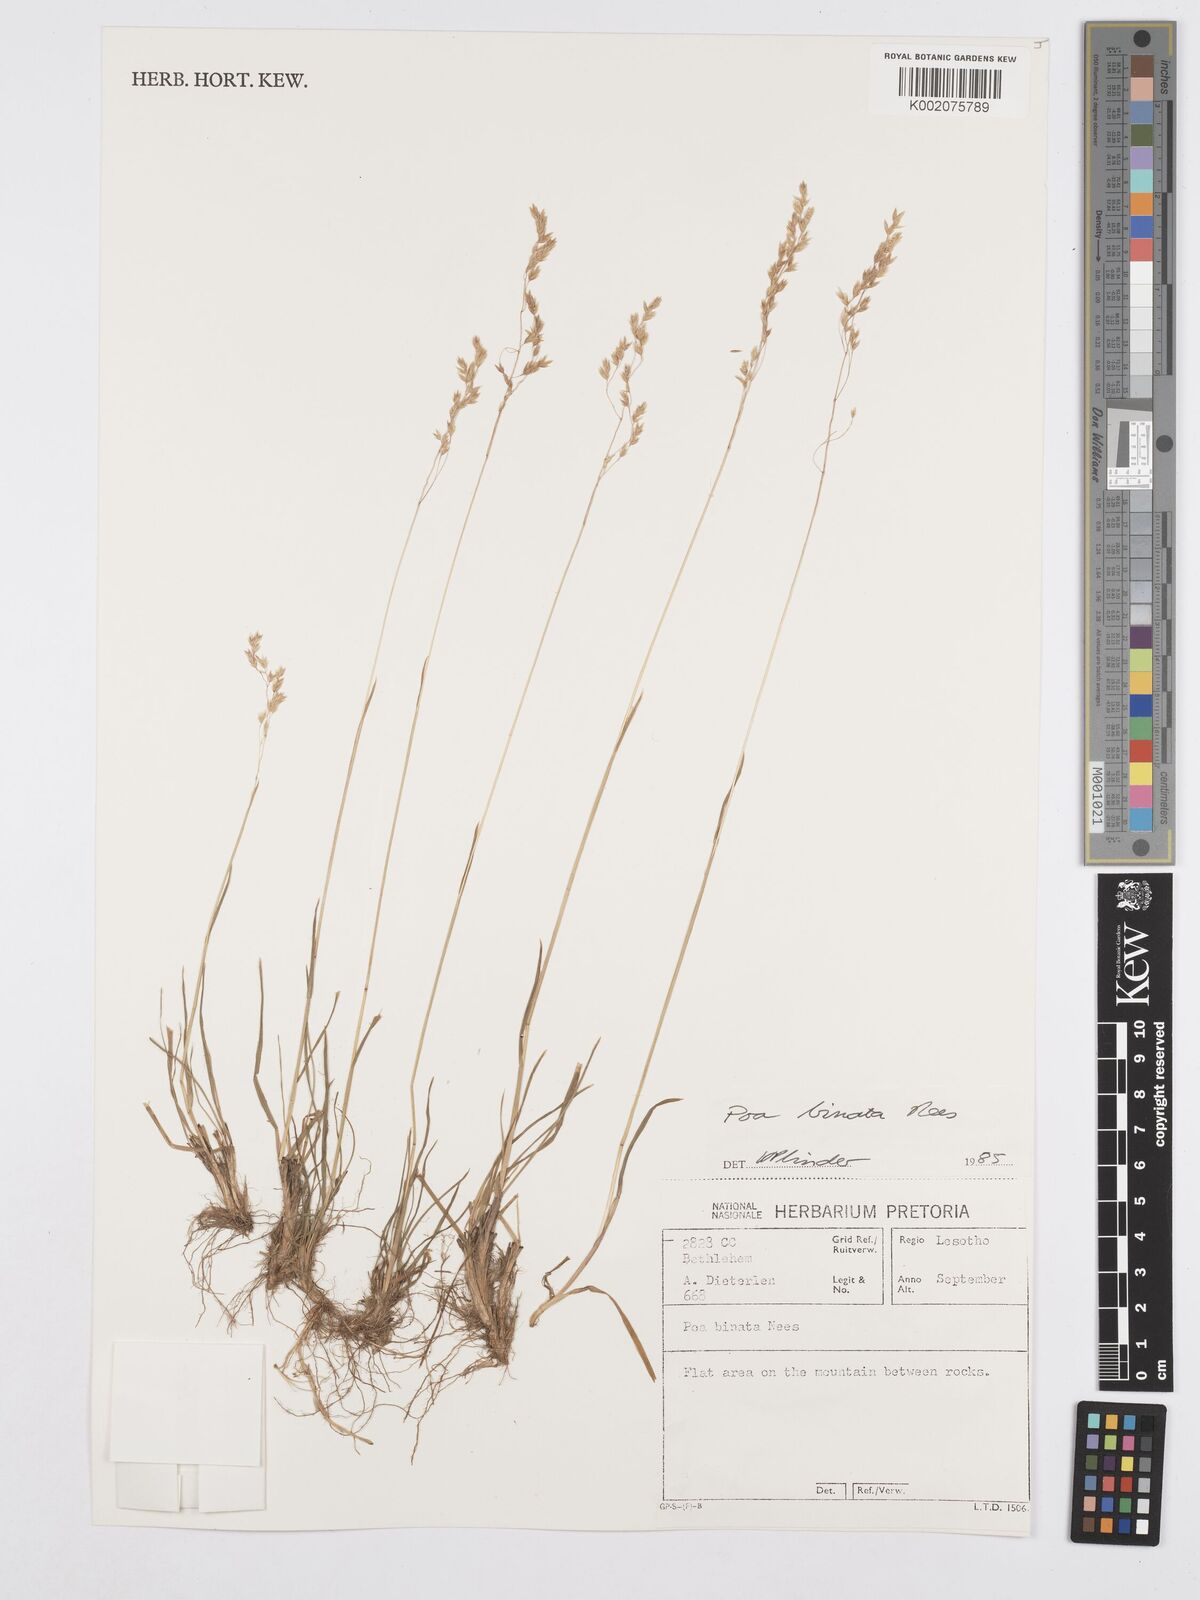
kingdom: Plantae
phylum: Tracheophyta
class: Liliopsida
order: Poales
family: Poaceae
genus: Poa
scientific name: Poa binata
